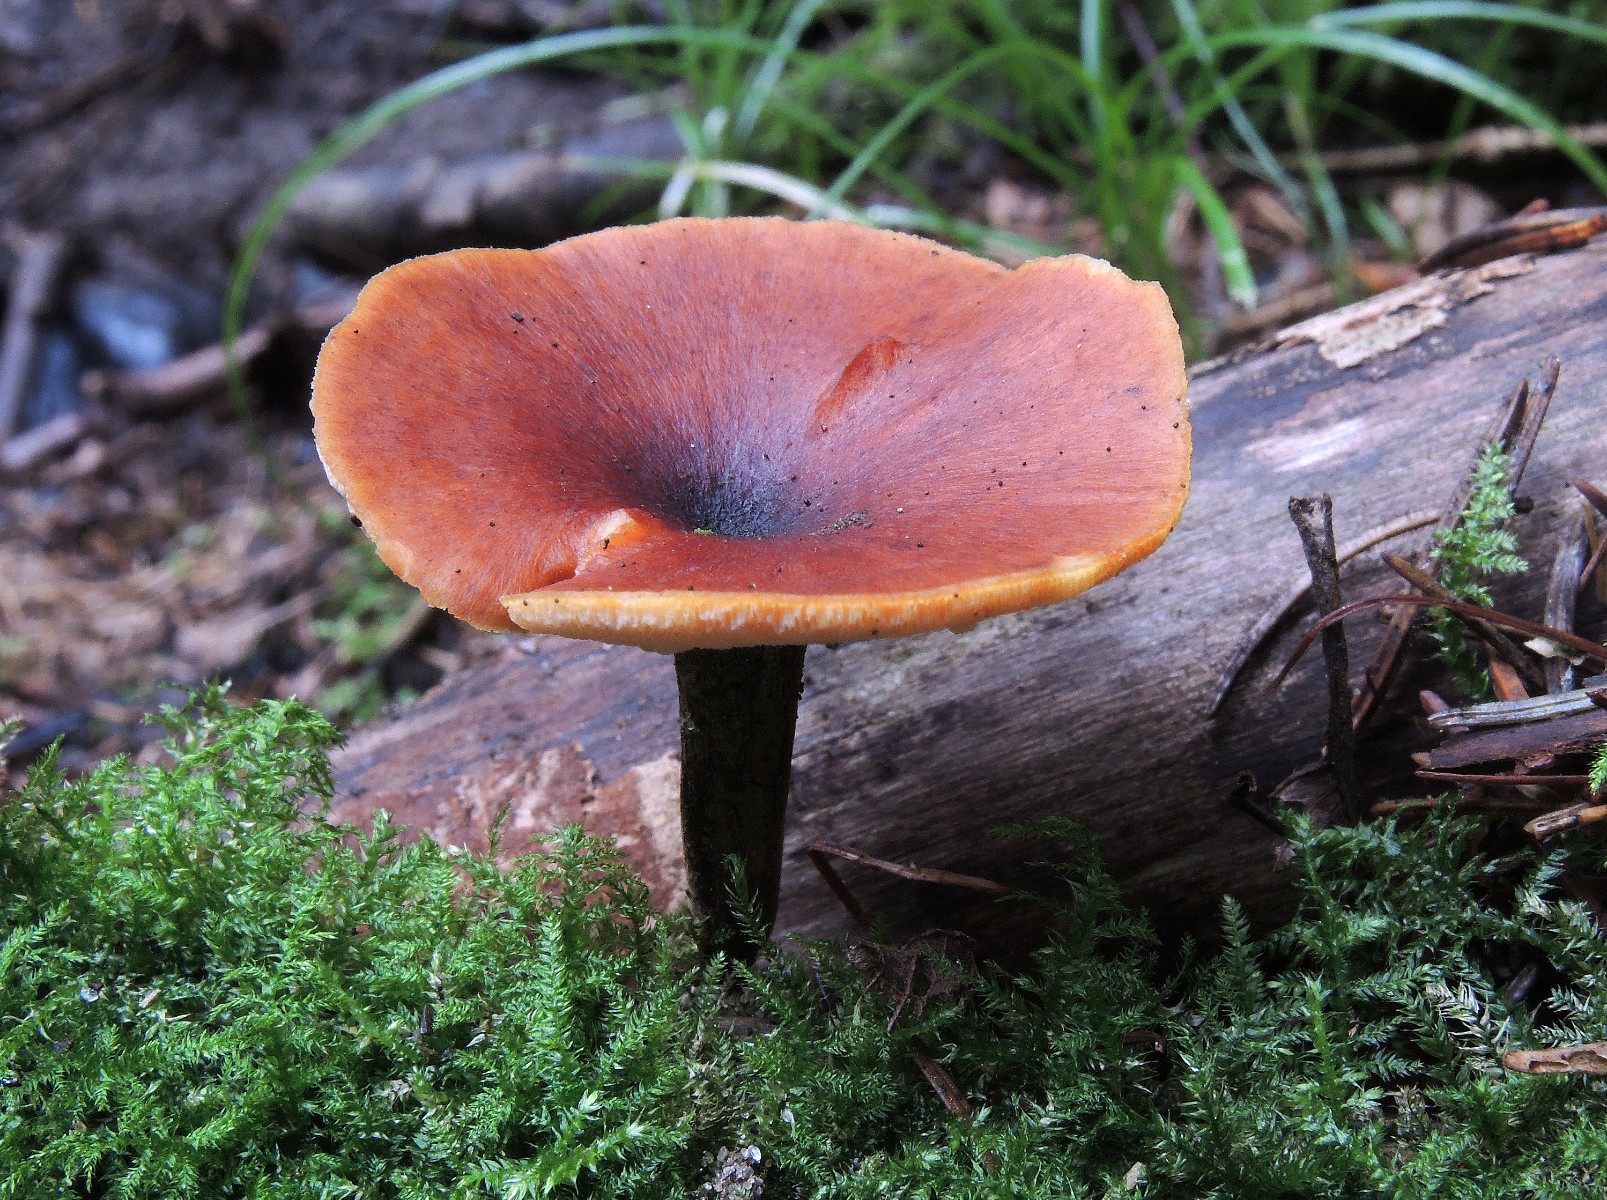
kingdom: Fungi
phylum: Basidiomycota
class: Agaricomycetes
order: Polyporales
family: Polyporaceae
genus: Picipes
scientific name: Picipes tubaeformis
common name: trompet-stilkporesvamp
